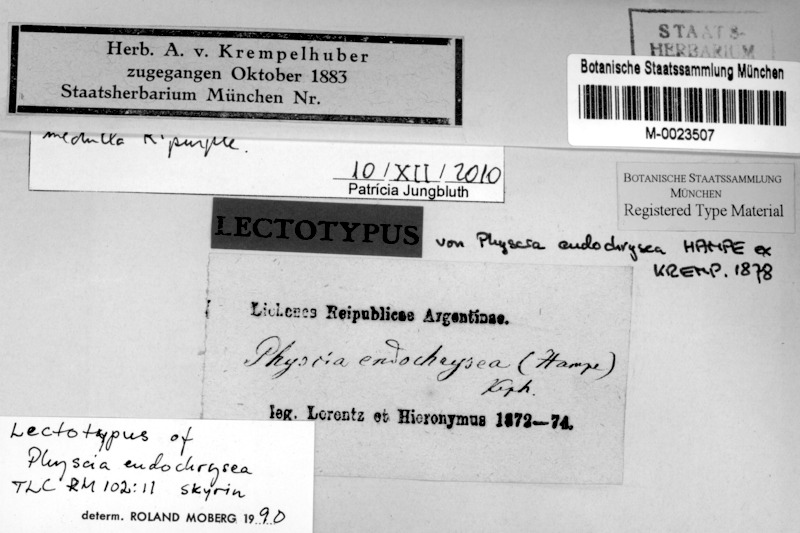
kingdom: Fungi
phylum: Ascomycota
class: Lecanoromycetes
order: Caliciales
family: Physciaceae
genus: Hyperphyscia
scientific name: Hyperphyscia endochrysea
